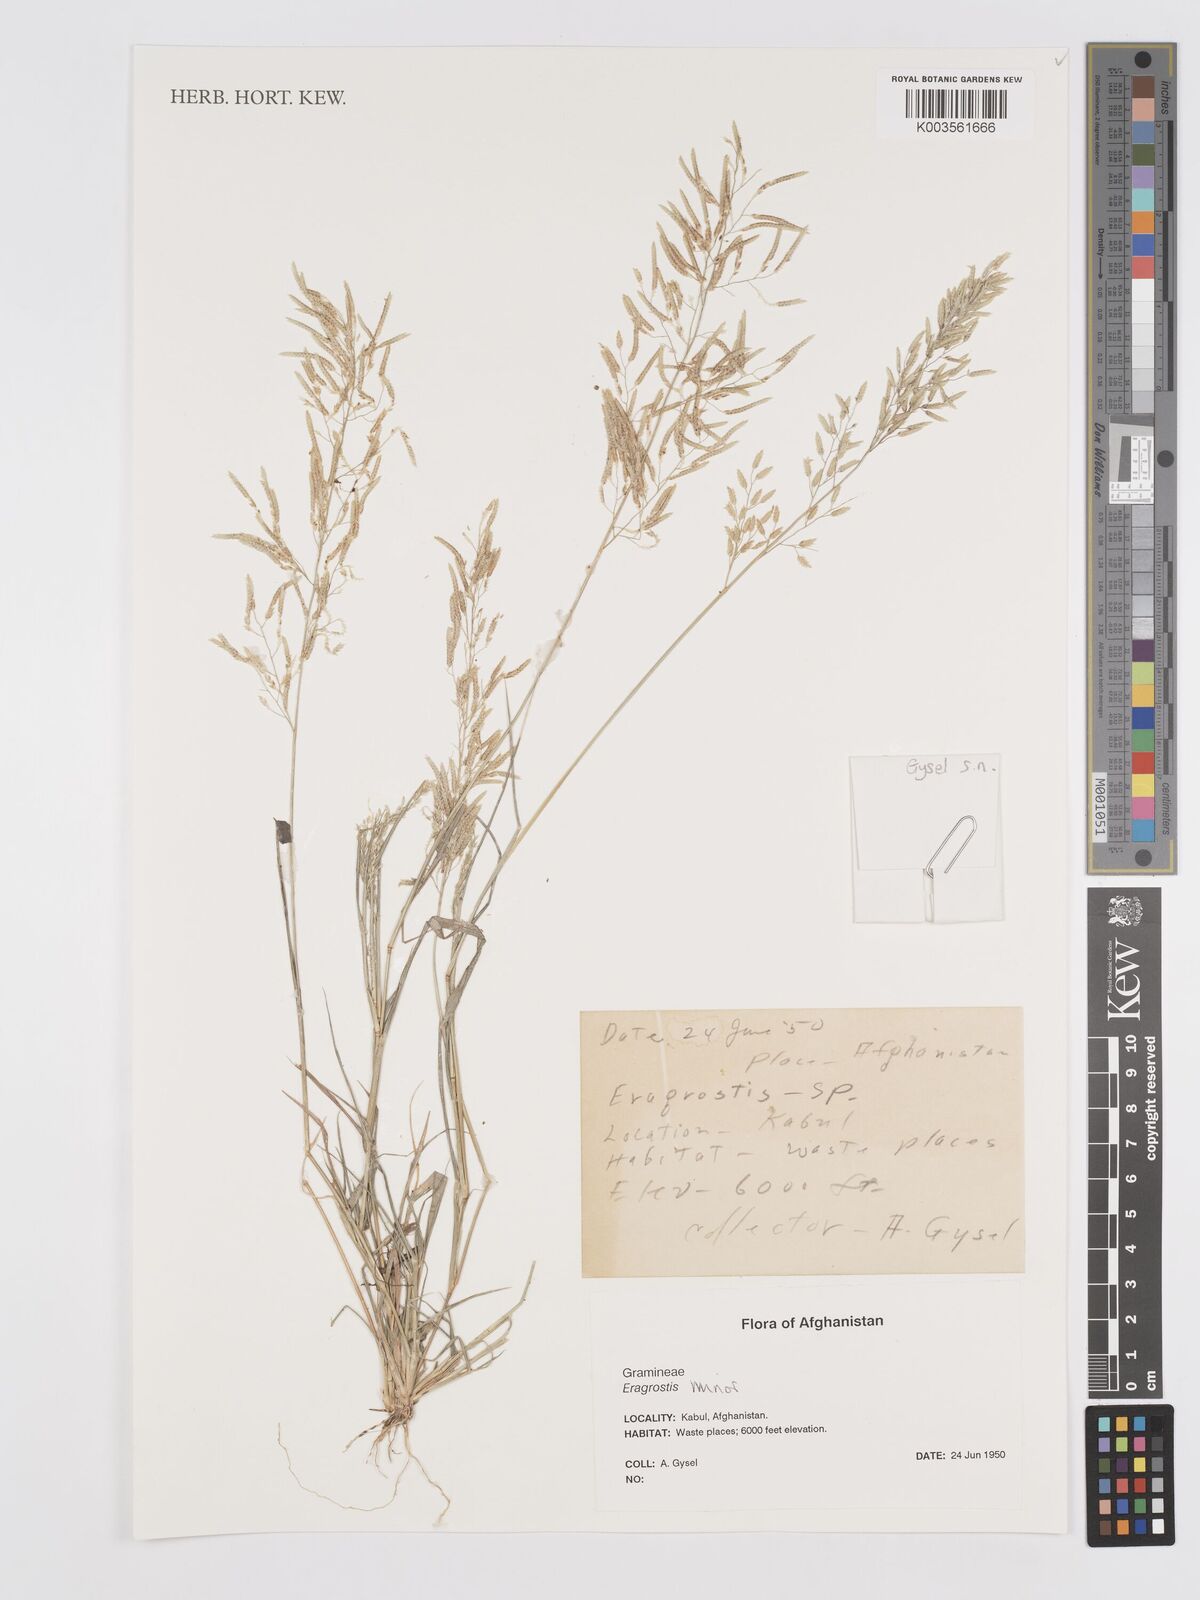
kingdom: Plantae
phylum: Tracheophyta
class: Liliopsida
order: Poales
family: Poaceae
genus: Eragrostis
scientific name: Eragrostis minor
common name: Small love-grass
